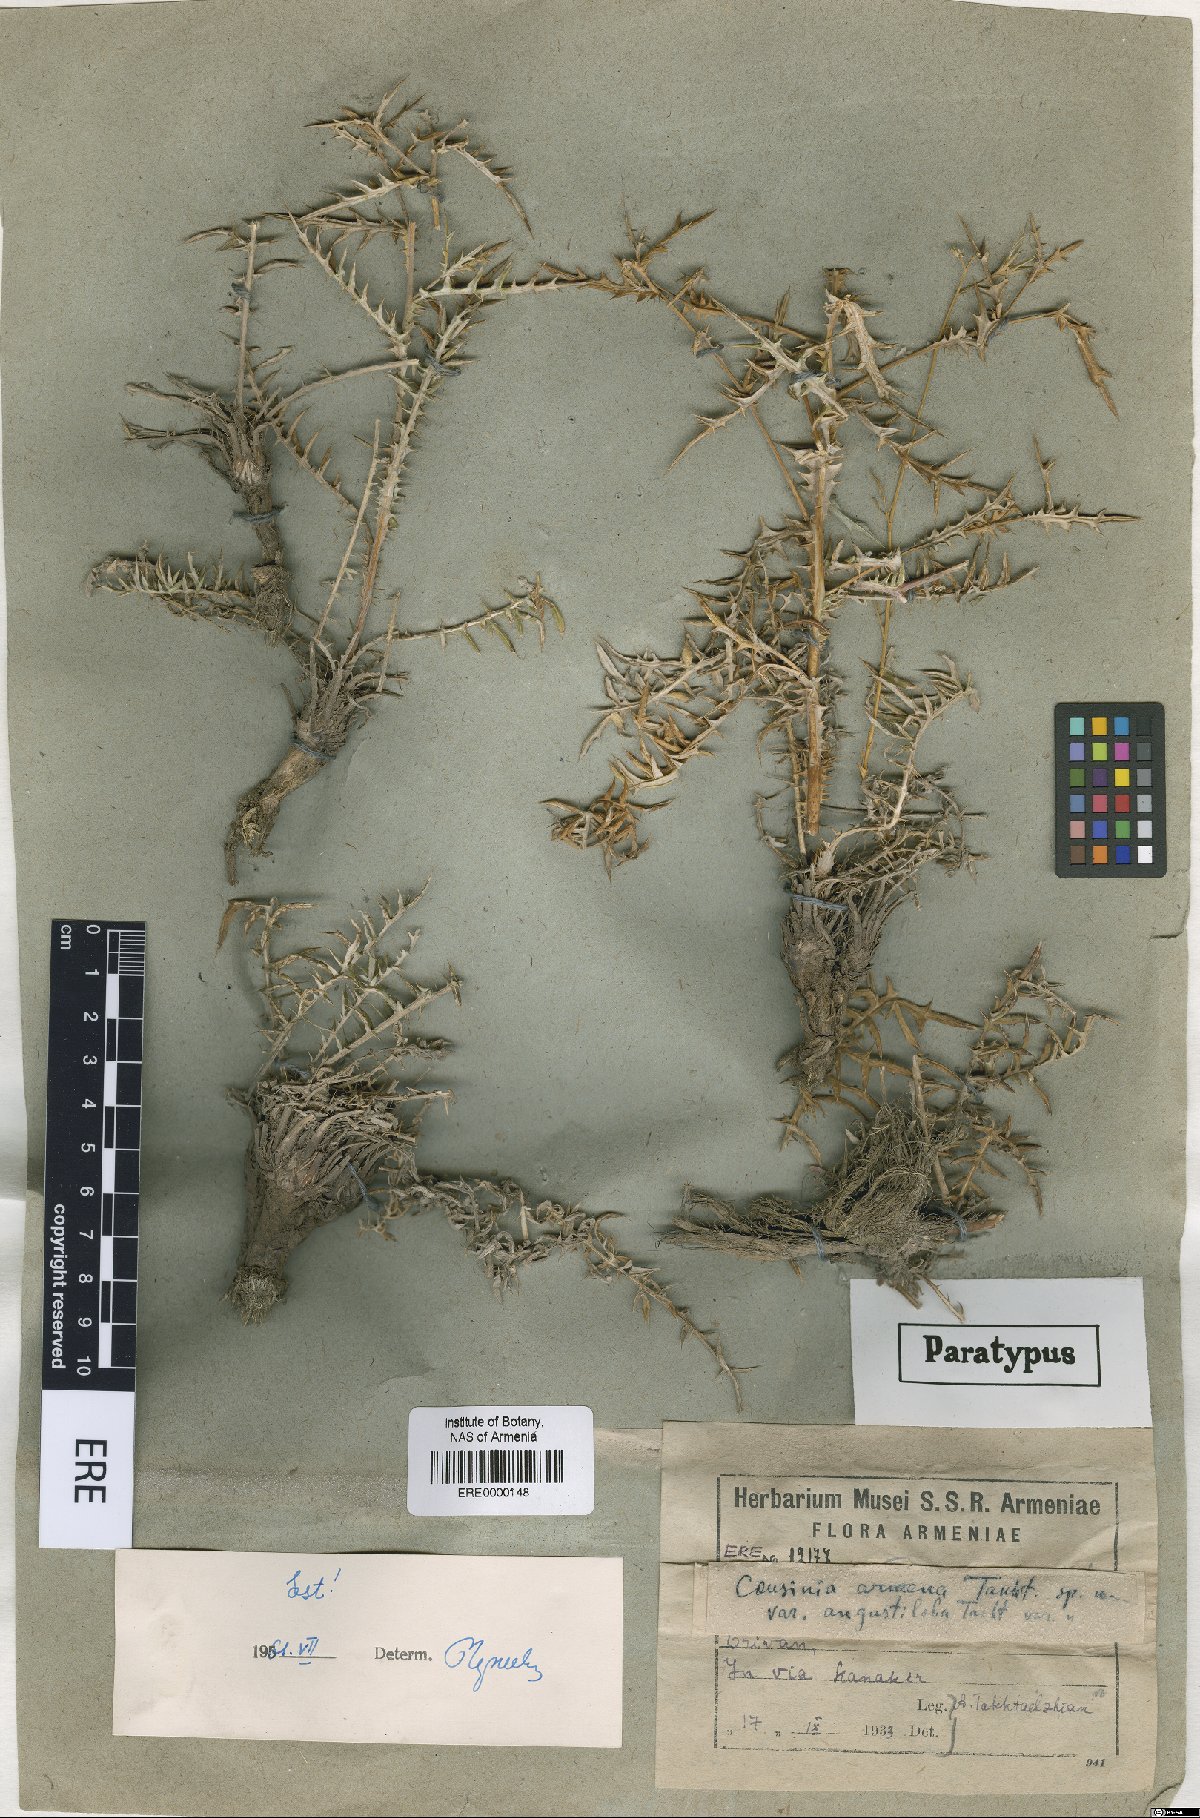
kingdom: Plantae
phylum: Tracheophyta
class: Magnoliopsida
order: Asterales
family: Asteraceae
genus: Cousinia
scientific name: Cousinia armena
